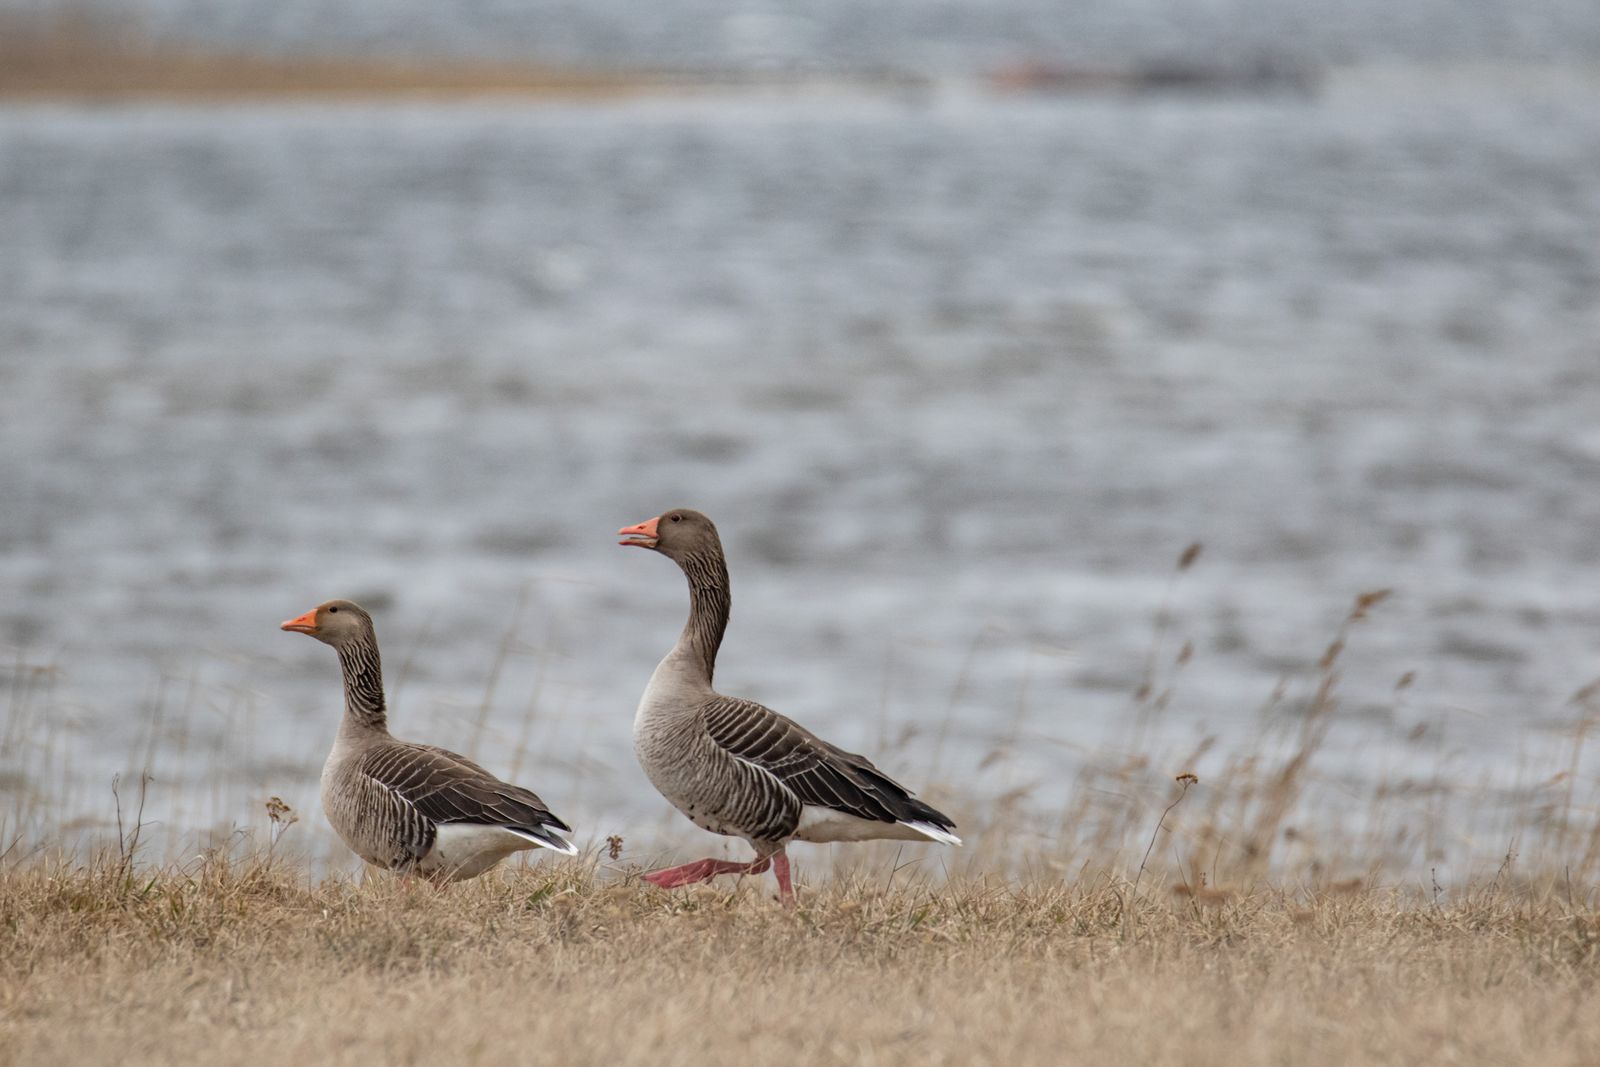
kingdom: Animalia
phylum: Chordata
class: Aves
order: Anseriformes
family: Anatidae
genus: Anser
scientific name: Anser anser
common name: Greylag goose
